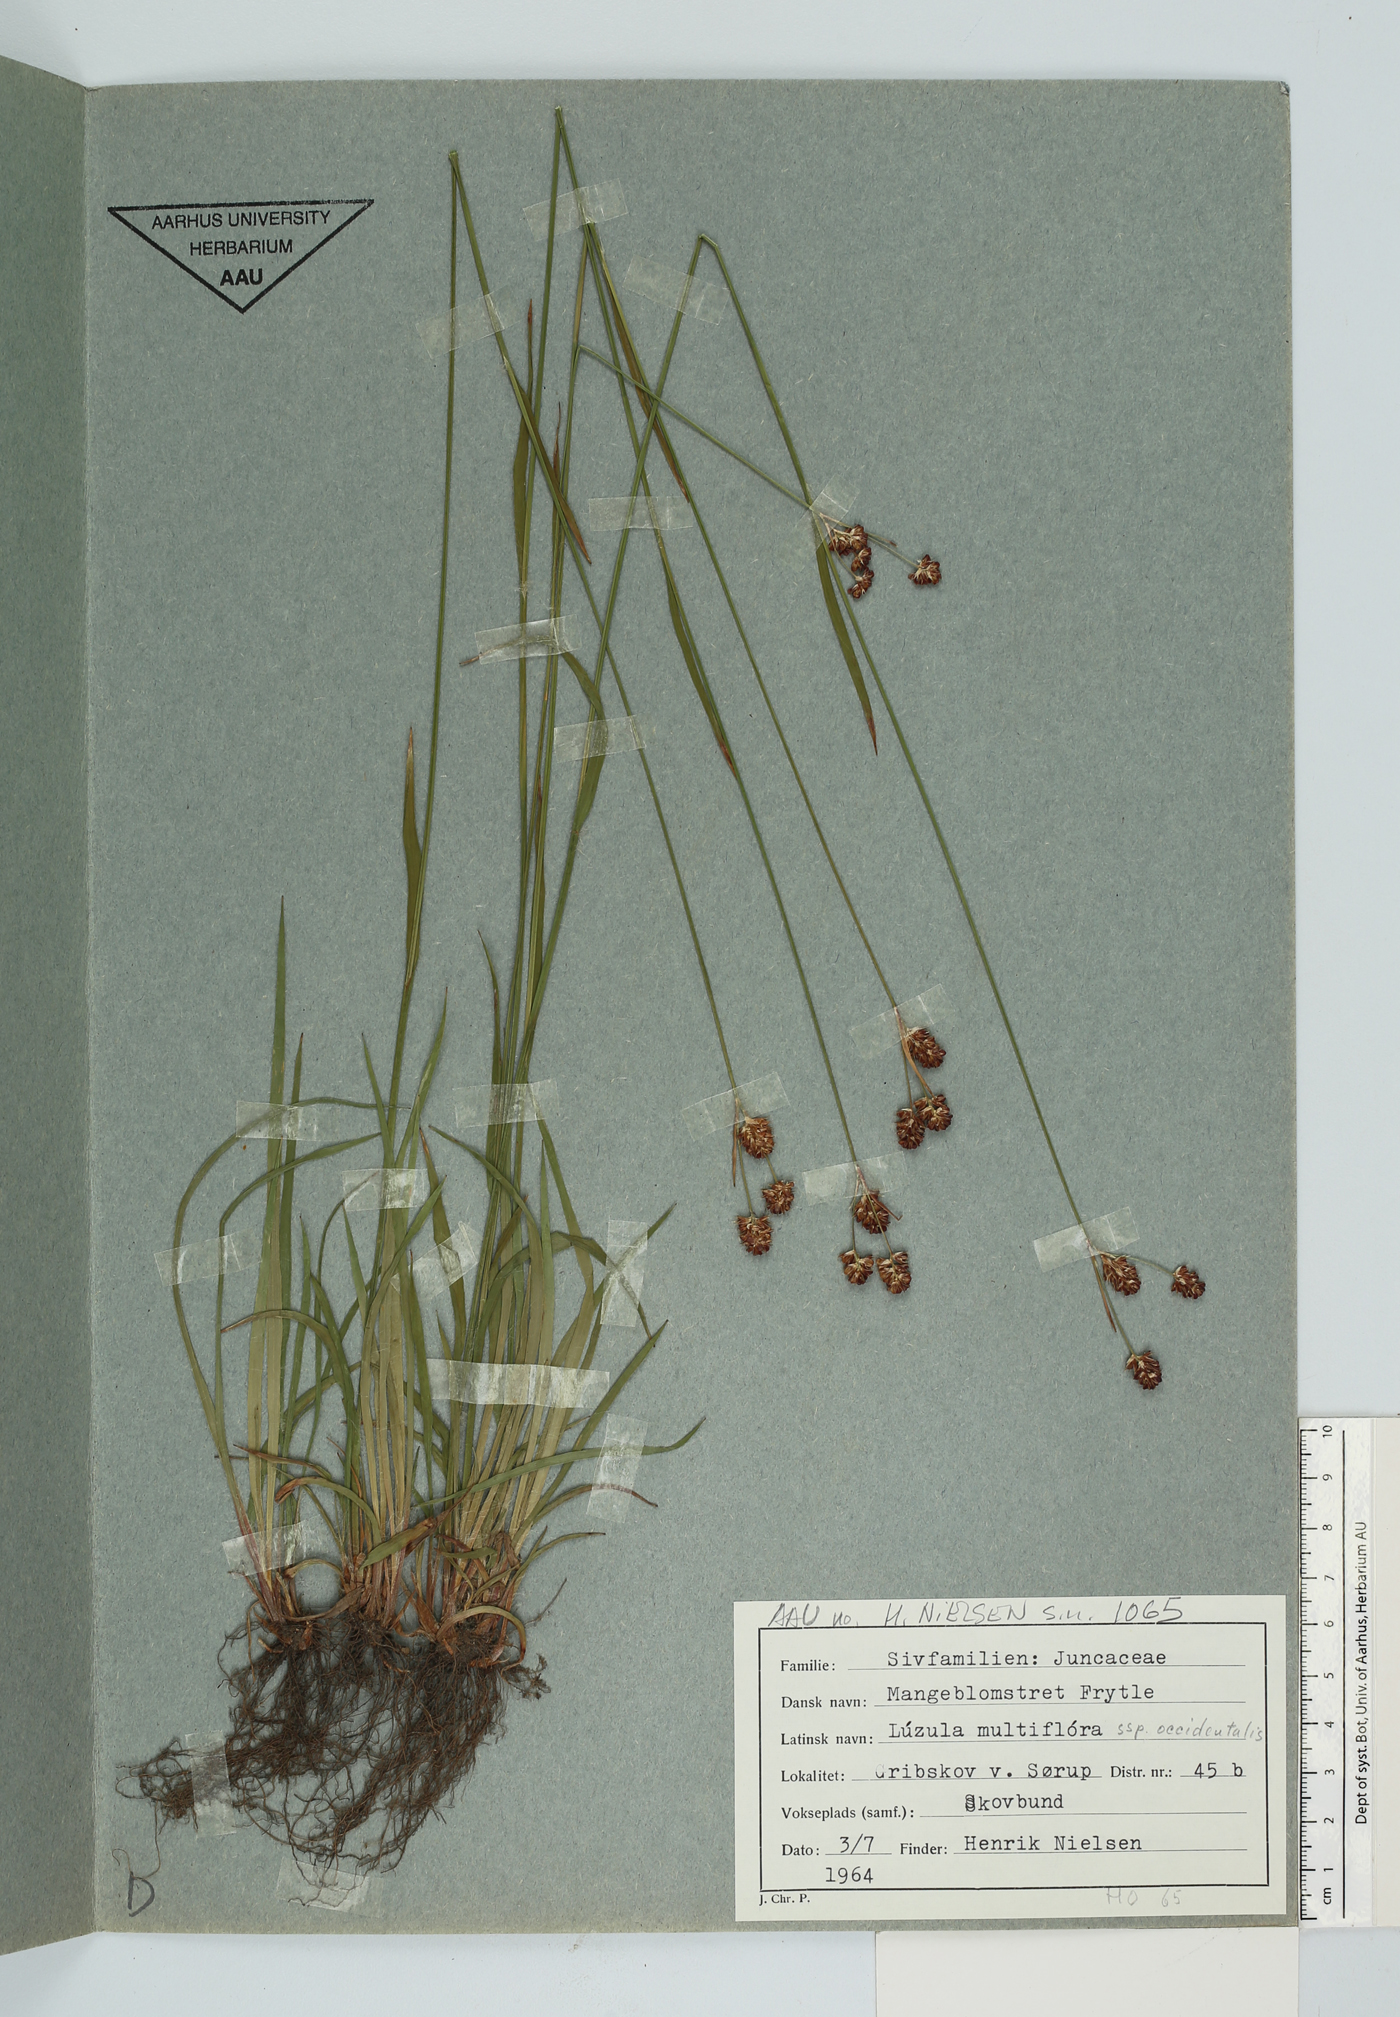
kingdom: Plantae
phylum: Tracheophyta
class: Liliopsida
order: Poales
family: Juncaceae
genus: Luzula
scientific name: Luzula multiflora
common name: Heath wood-rush
